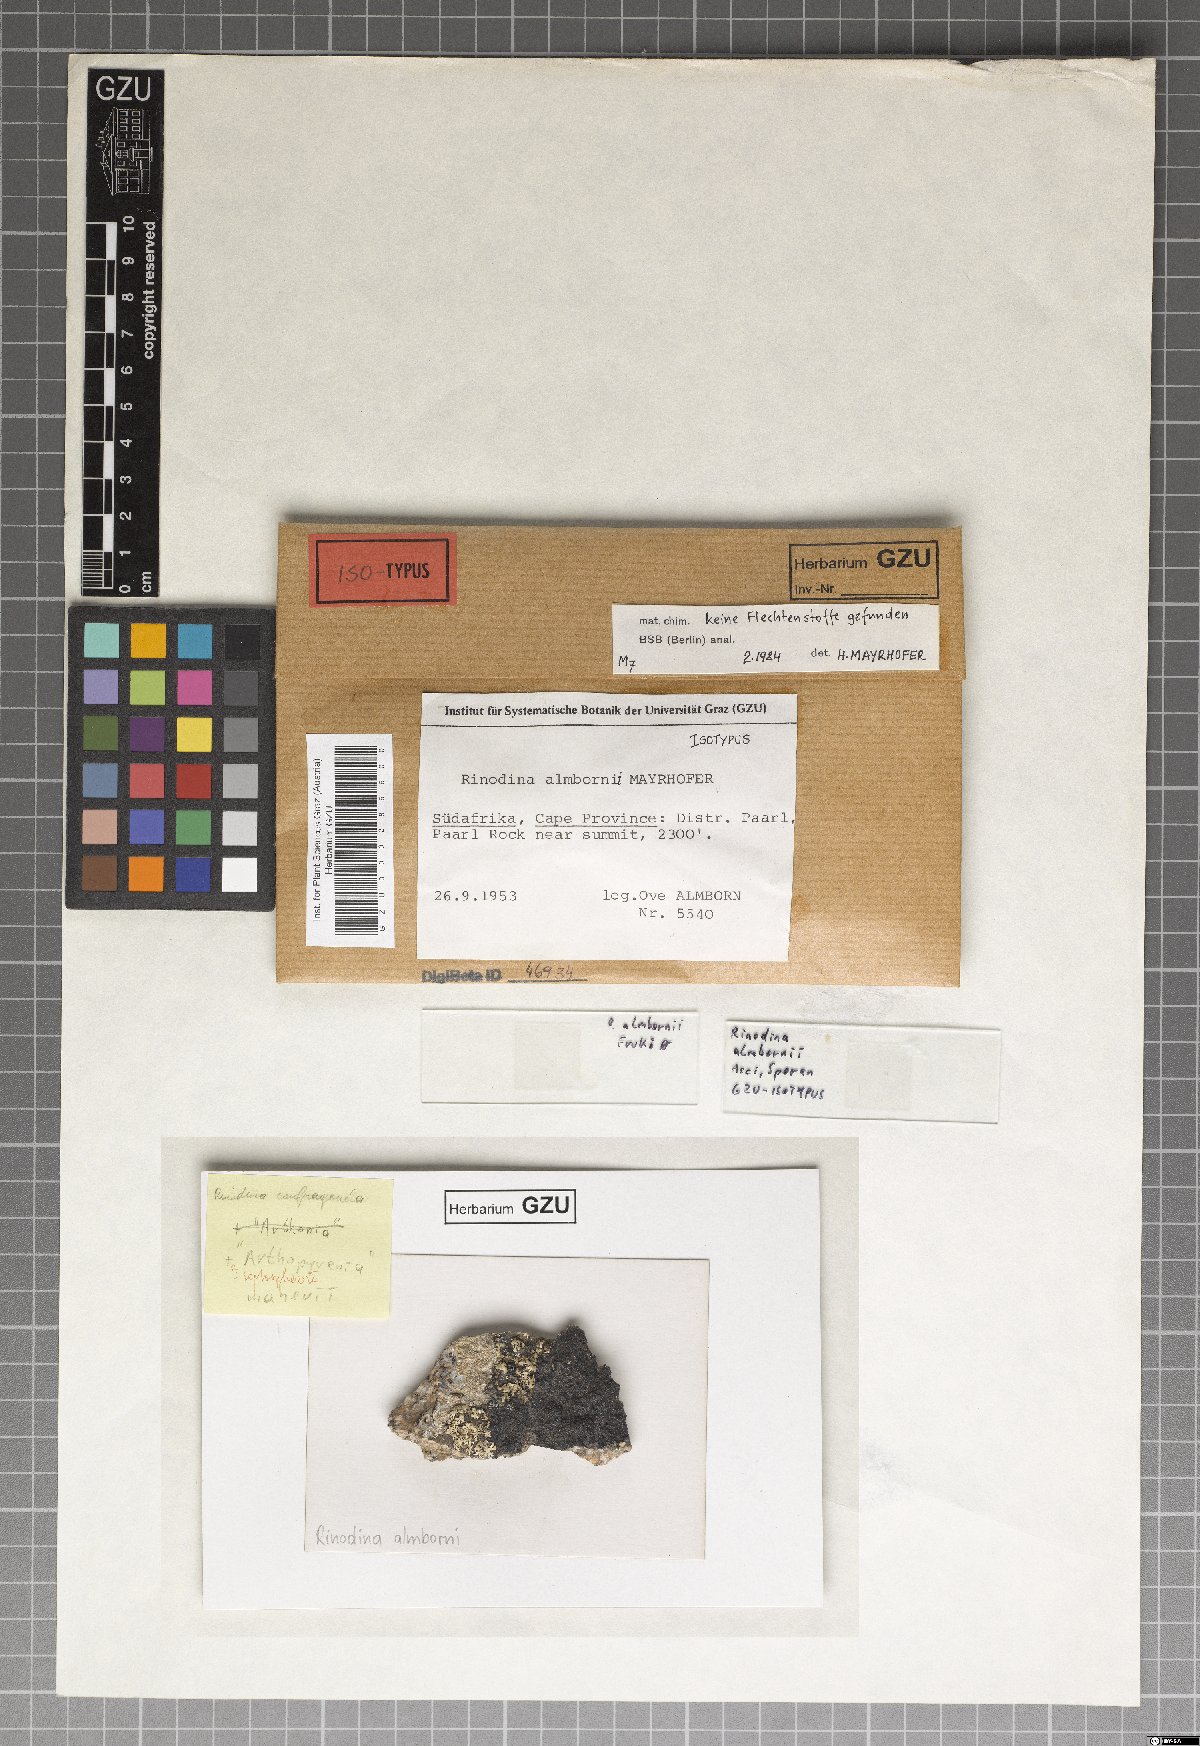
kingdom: Fungi
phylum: Ascomycota
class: Lecanoromycetes
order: Caliciales
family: Physciaceae
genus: Rinodina
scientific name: Rinodina
